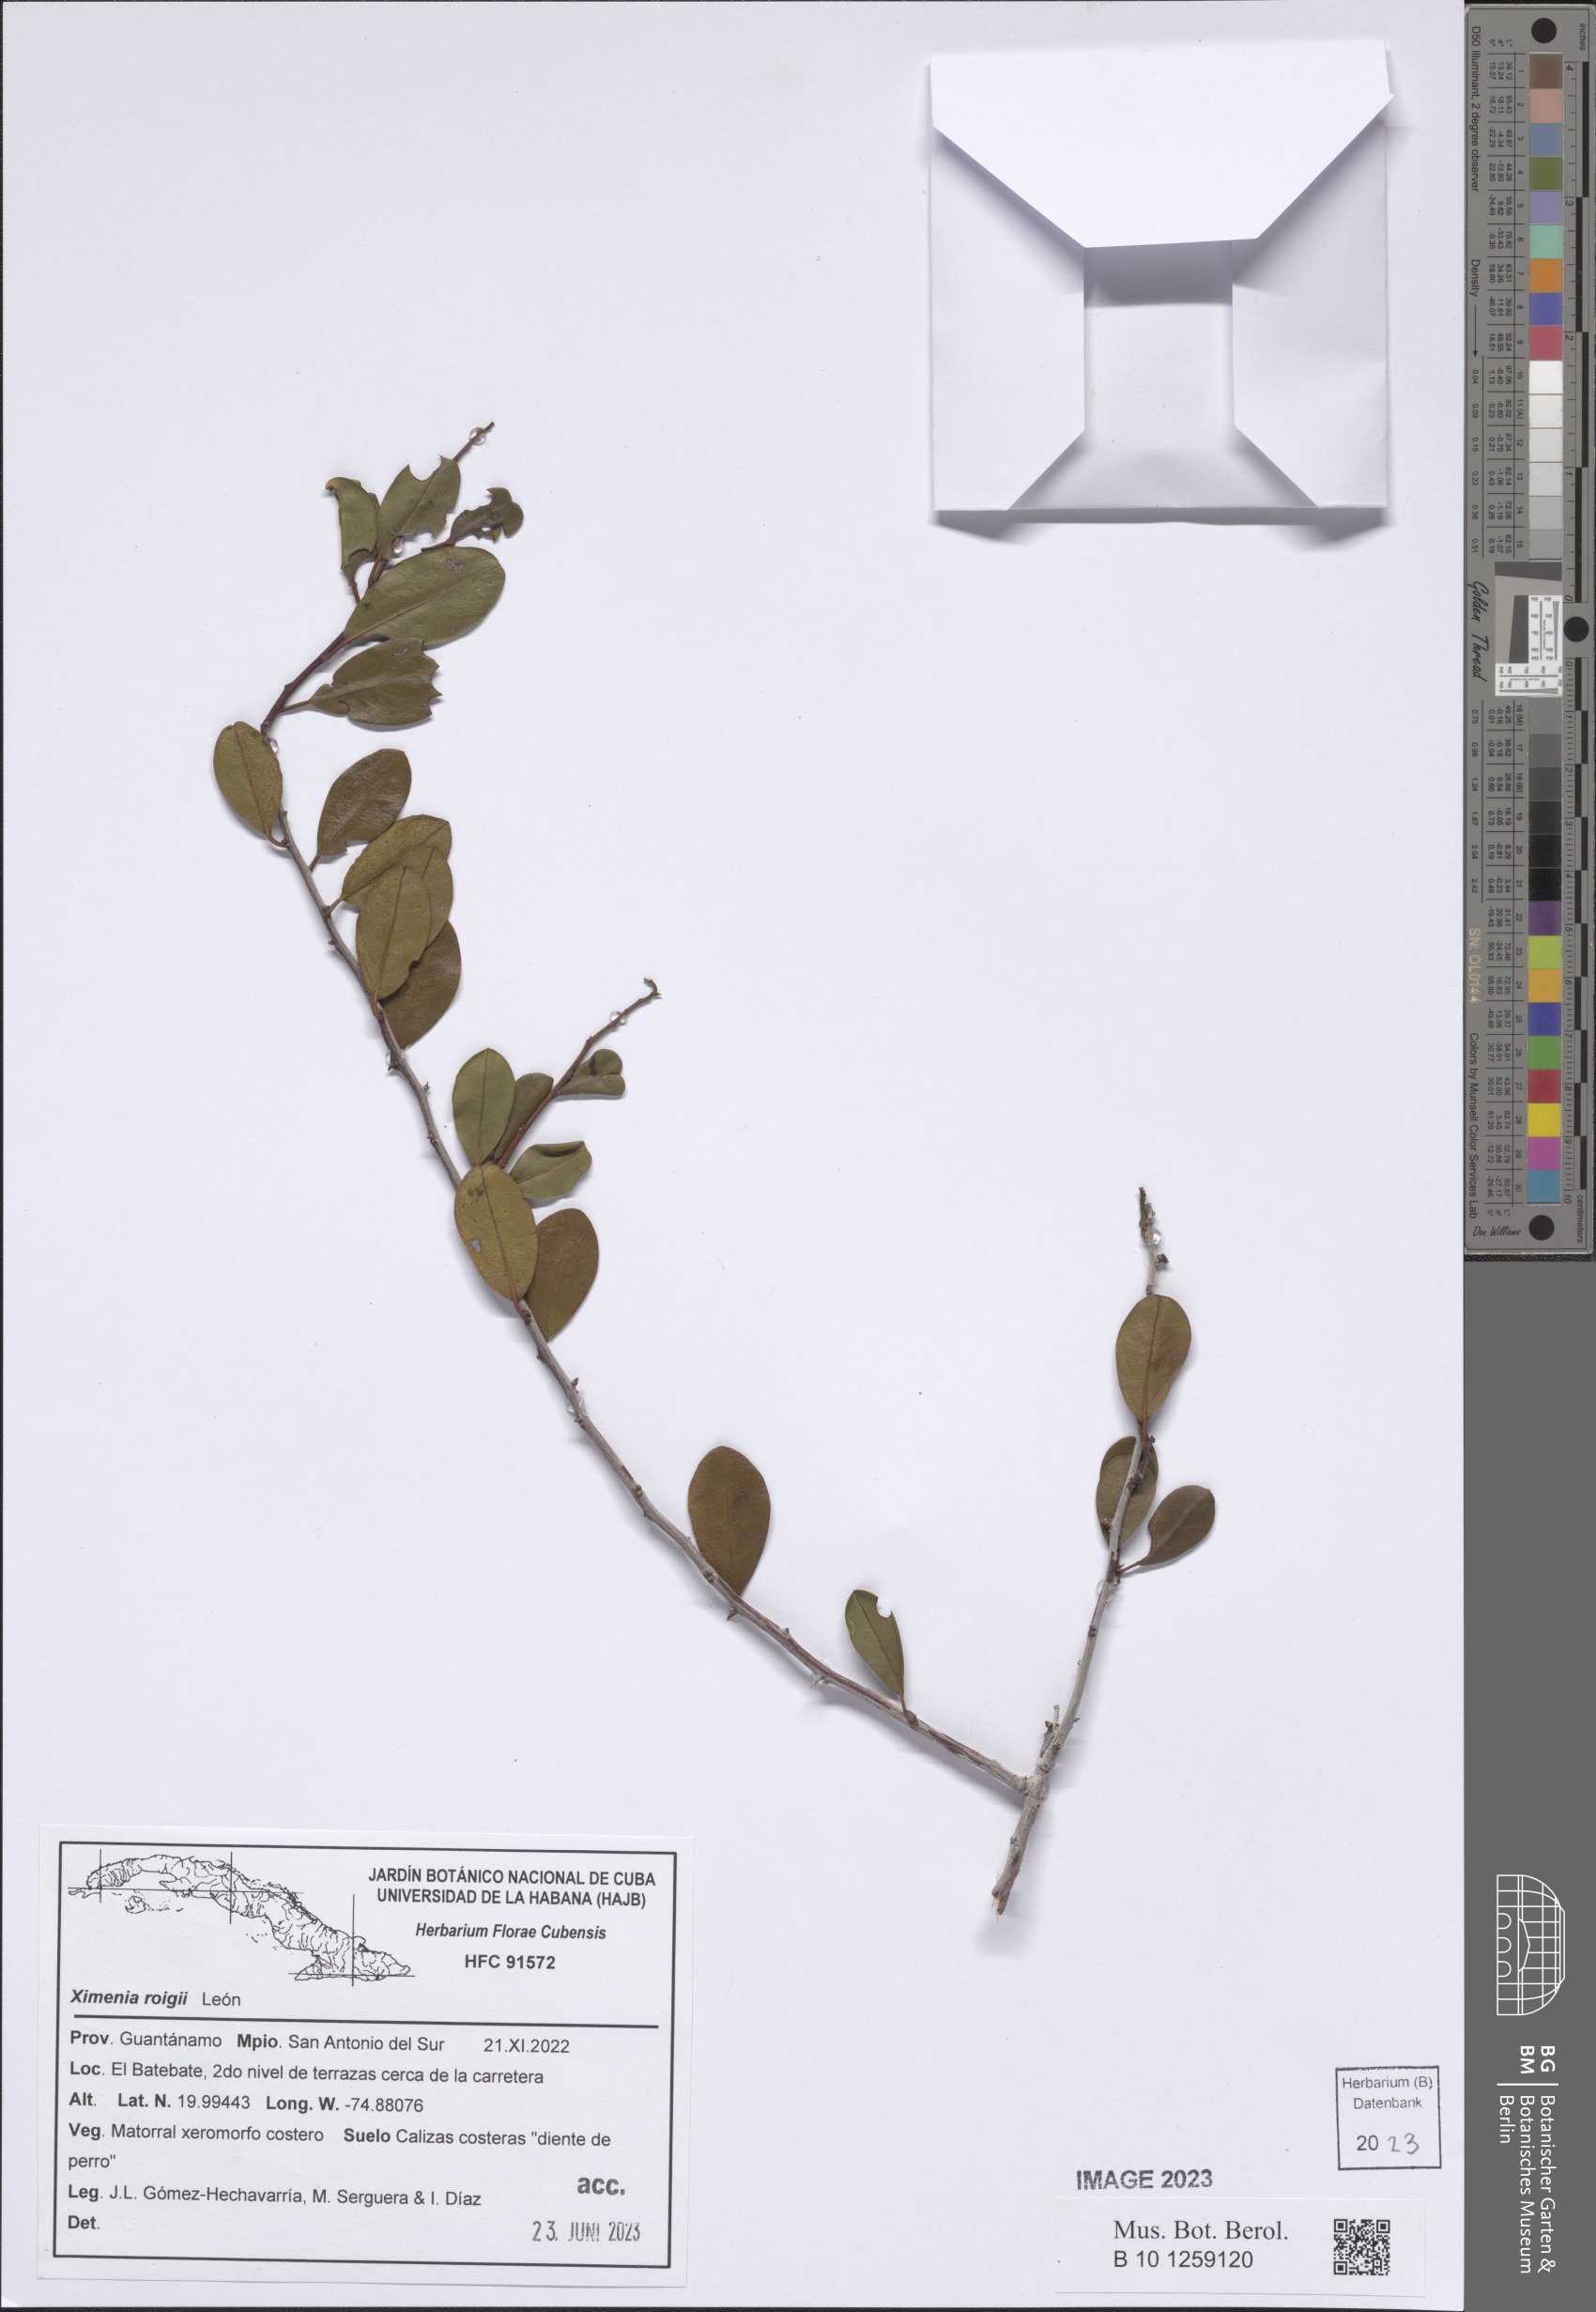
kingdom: Plantae
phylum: Tracheophyta
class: Magnoliopsida
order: Santalales
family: Ximeniaceae
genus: Ximenia
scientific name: Ximenia roigii
